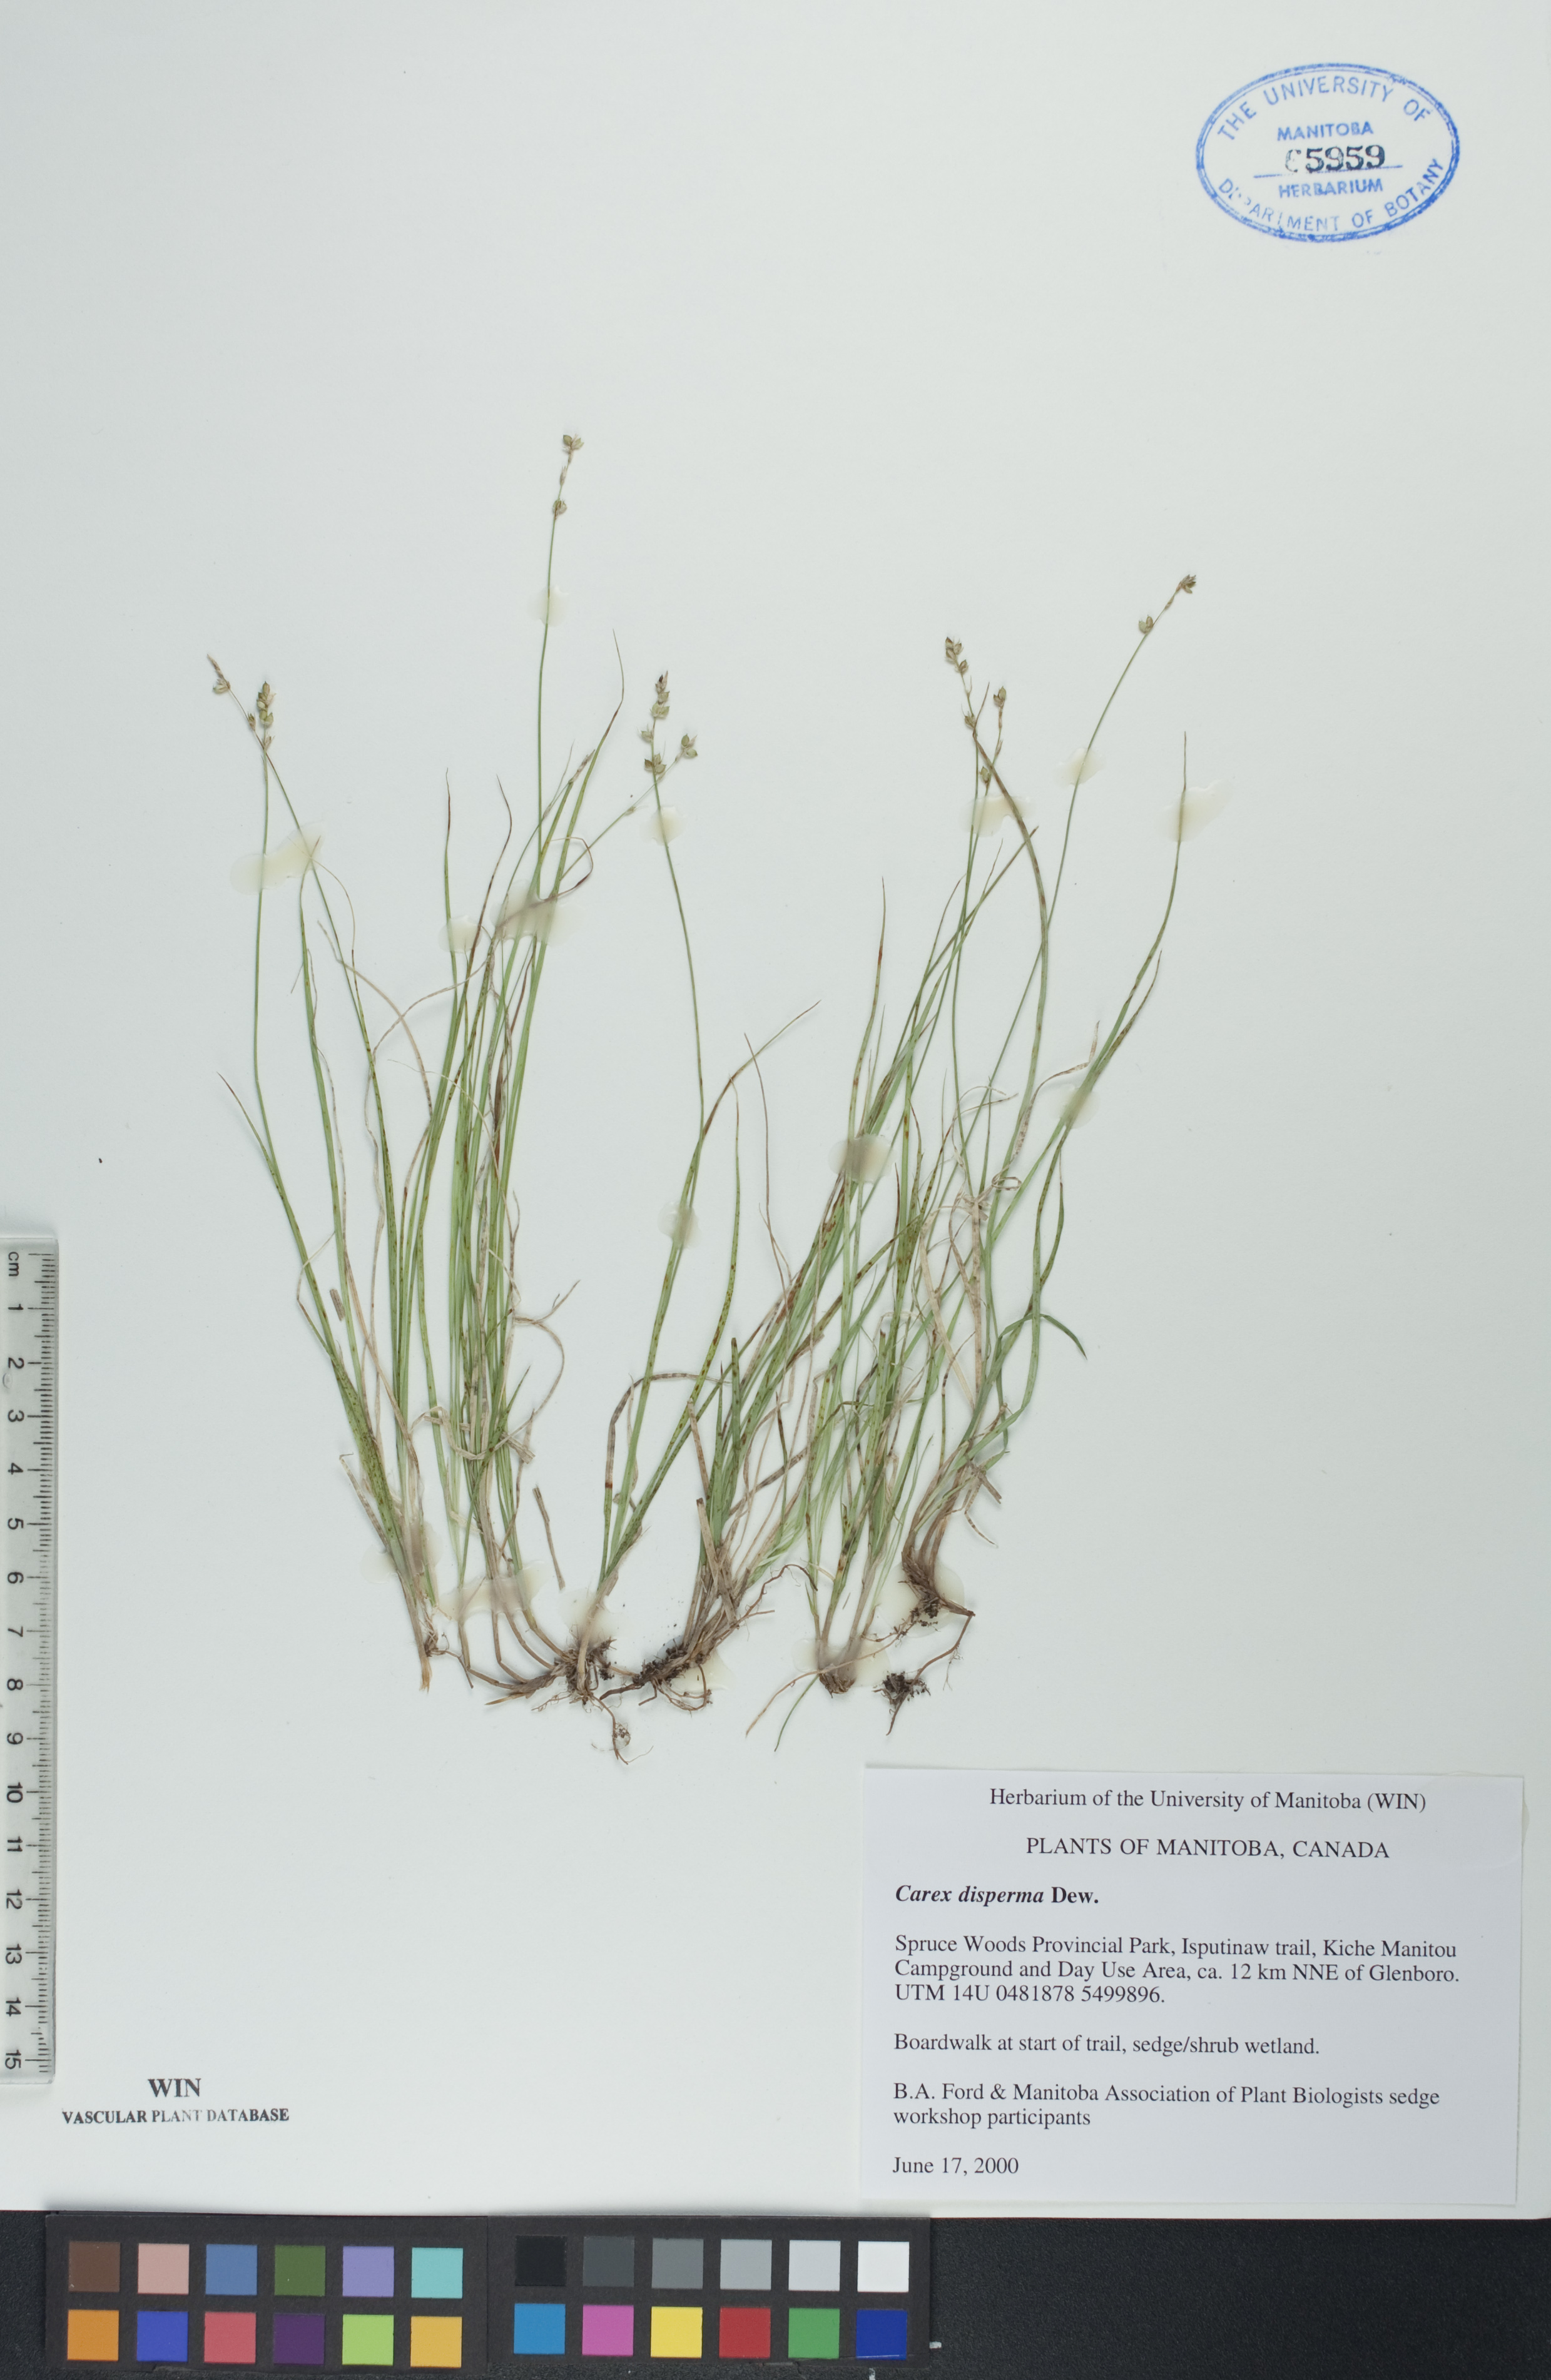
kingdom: Plantae
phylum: Tracheophyta
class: Liliopsida
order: Poales
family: Cyperaceae
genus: Carex
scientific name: Carex disperma
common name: Short-leaved sedge
